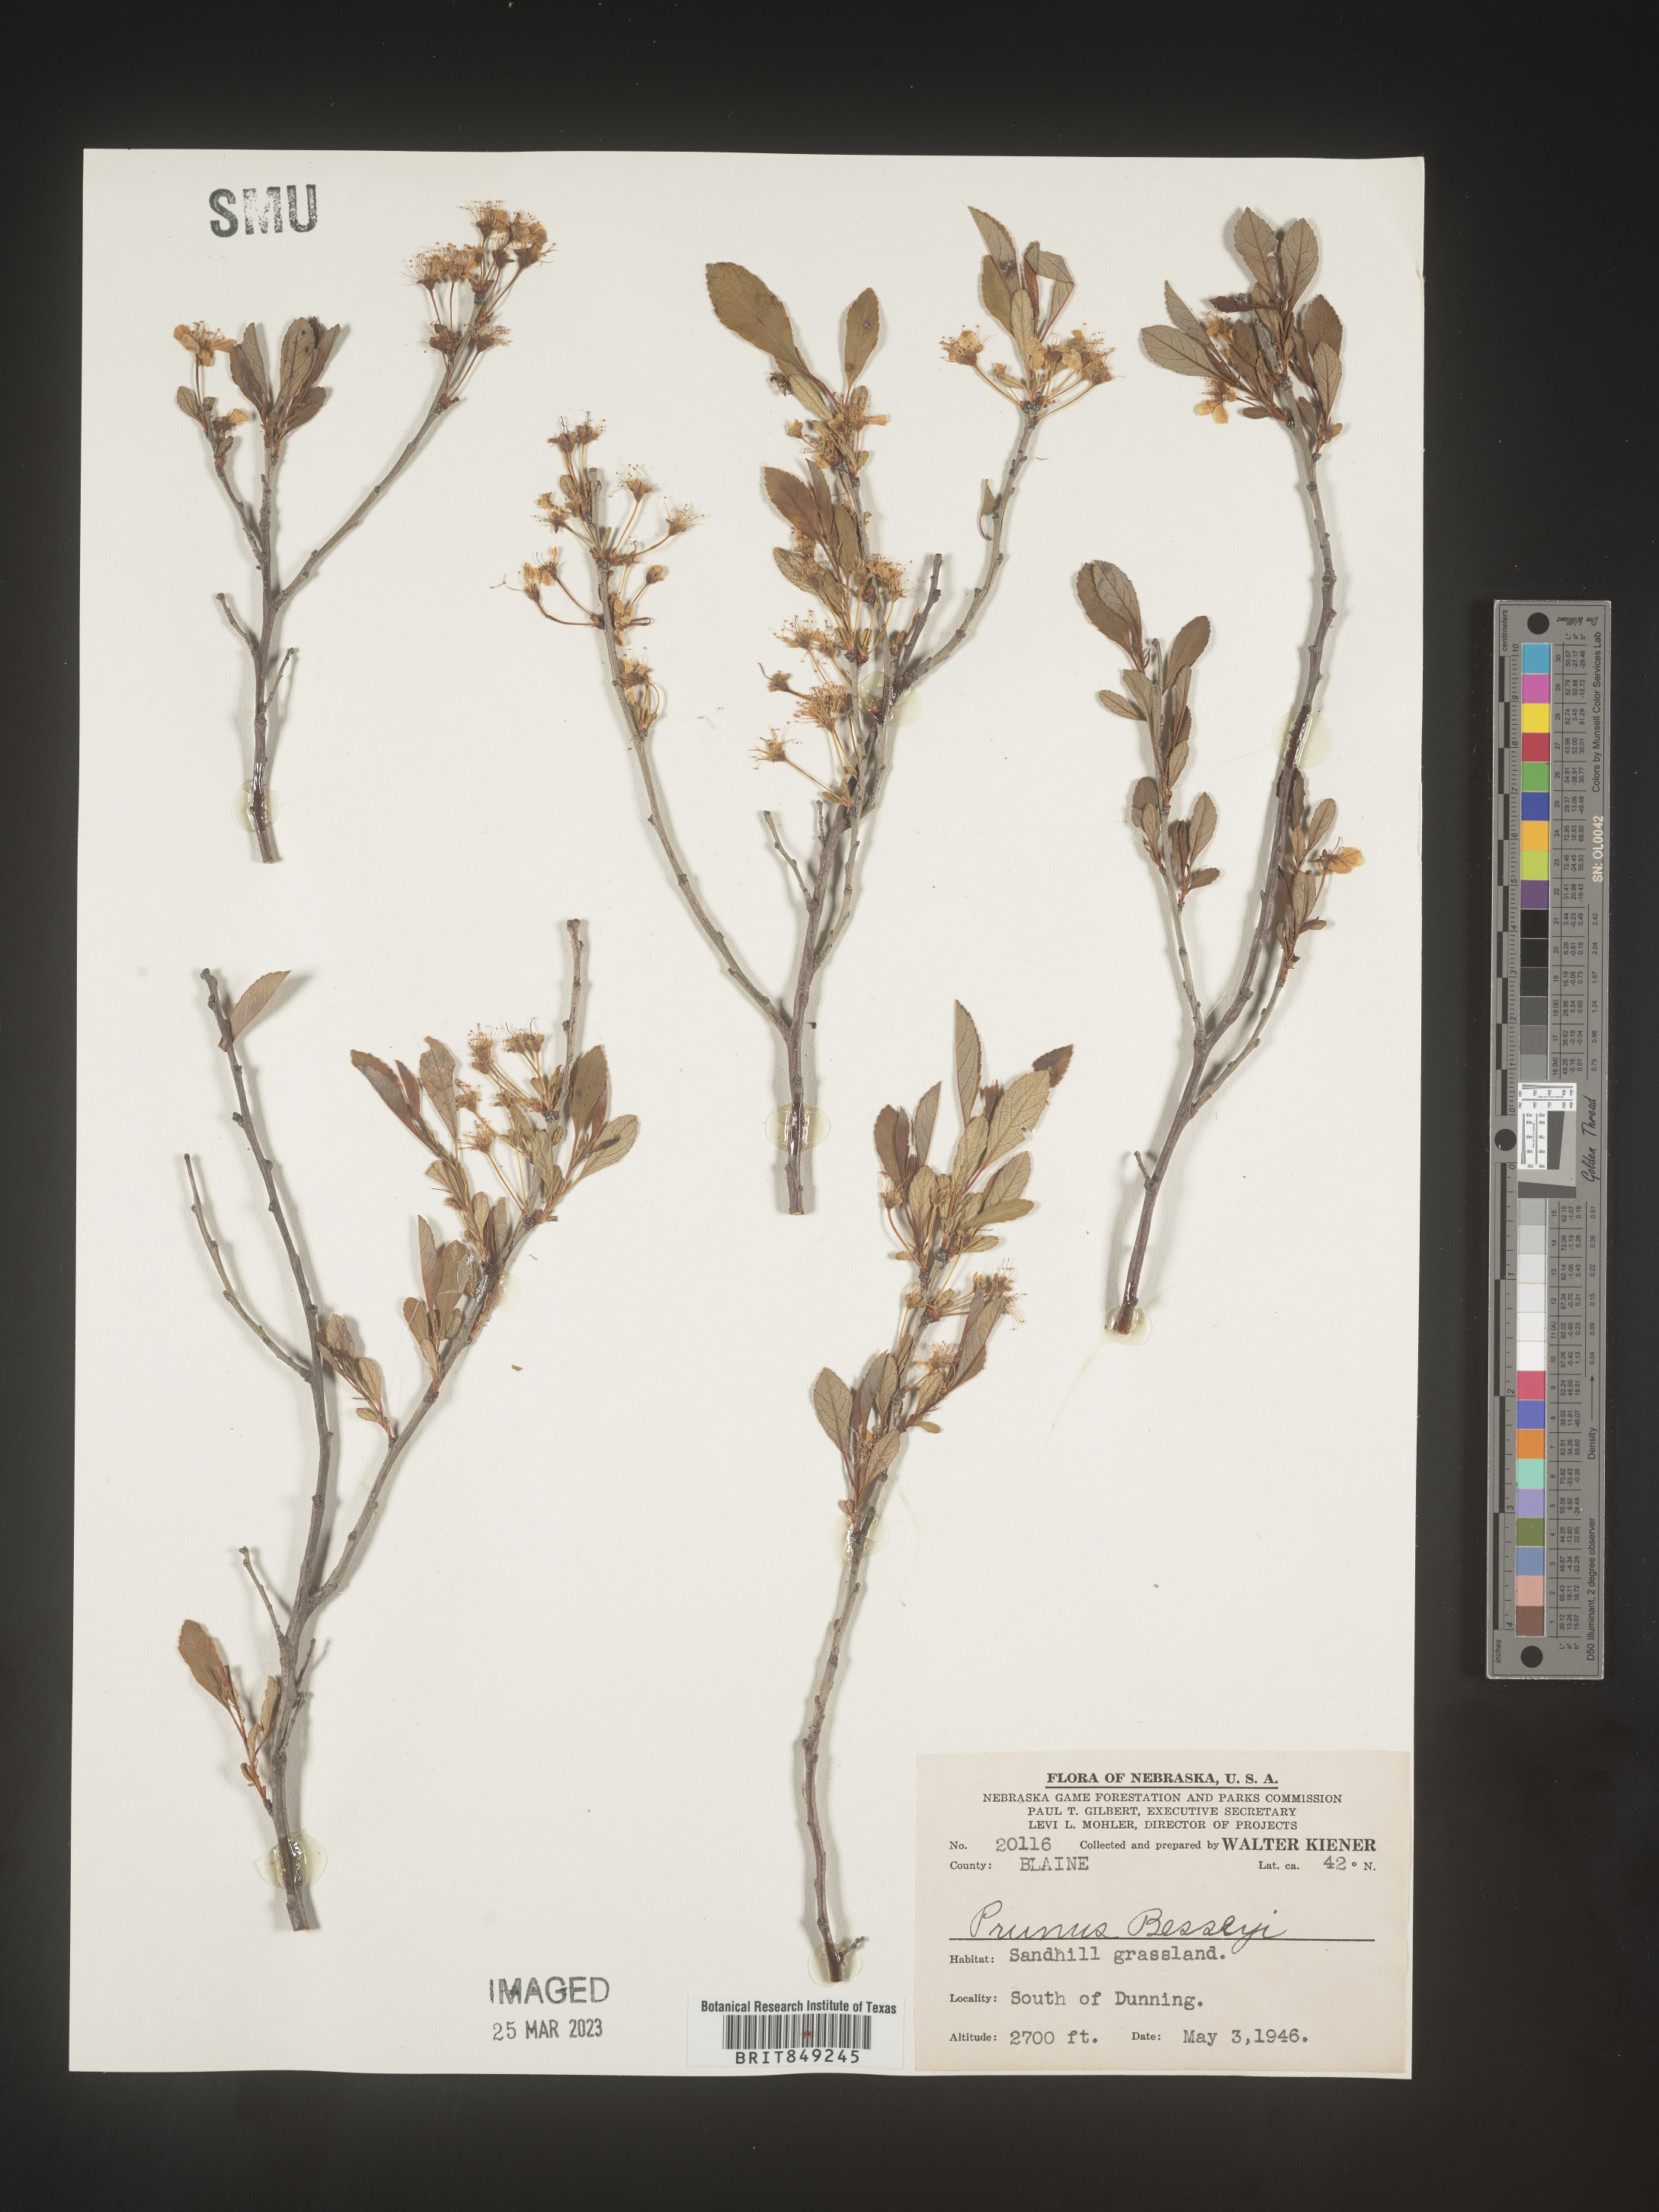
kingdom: Plantae
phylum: Tracheophyta
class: Magnoliopsida
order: Rosales
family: Rosaceae
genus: Prunus
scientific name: Prunus pumila
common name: Dwarf cherry
